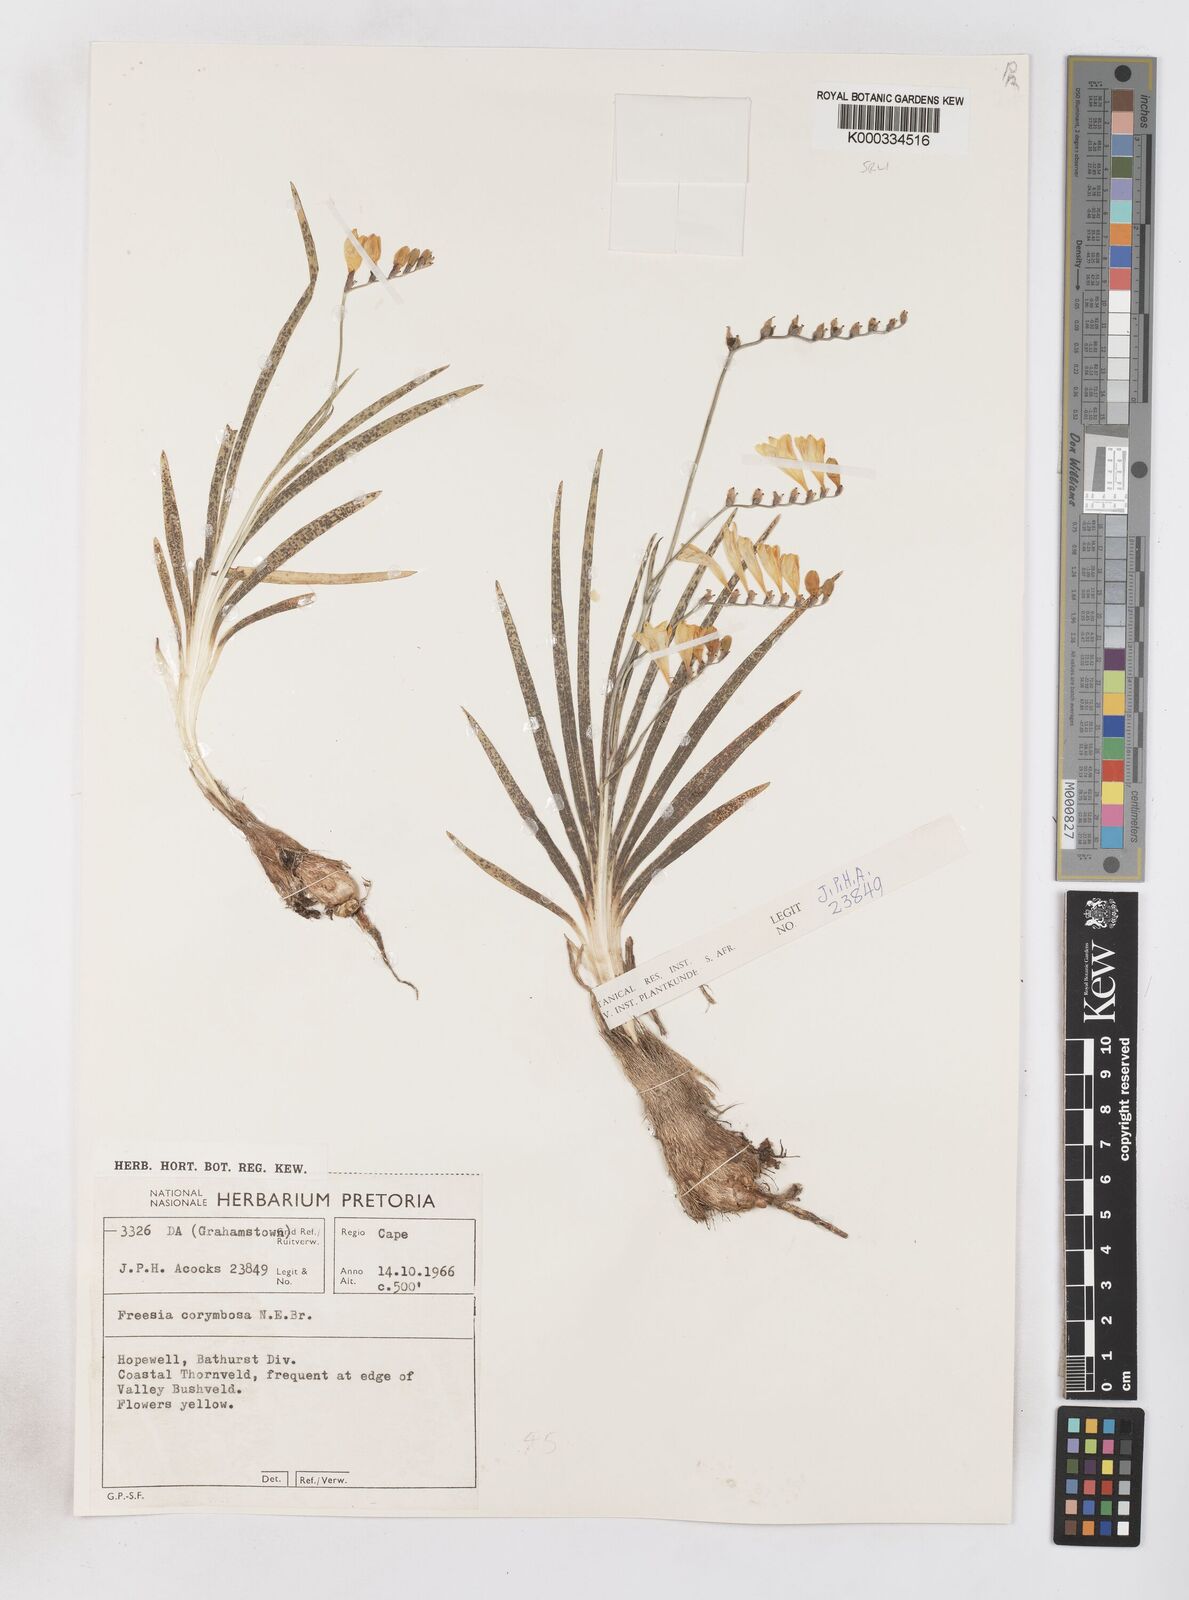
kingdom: Plantae
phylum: Tracheophyta
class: Liliopsida
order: Asparagales
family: Iridaceae
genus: Freesia
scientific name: Freesia corymbosa
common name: Common freesia
